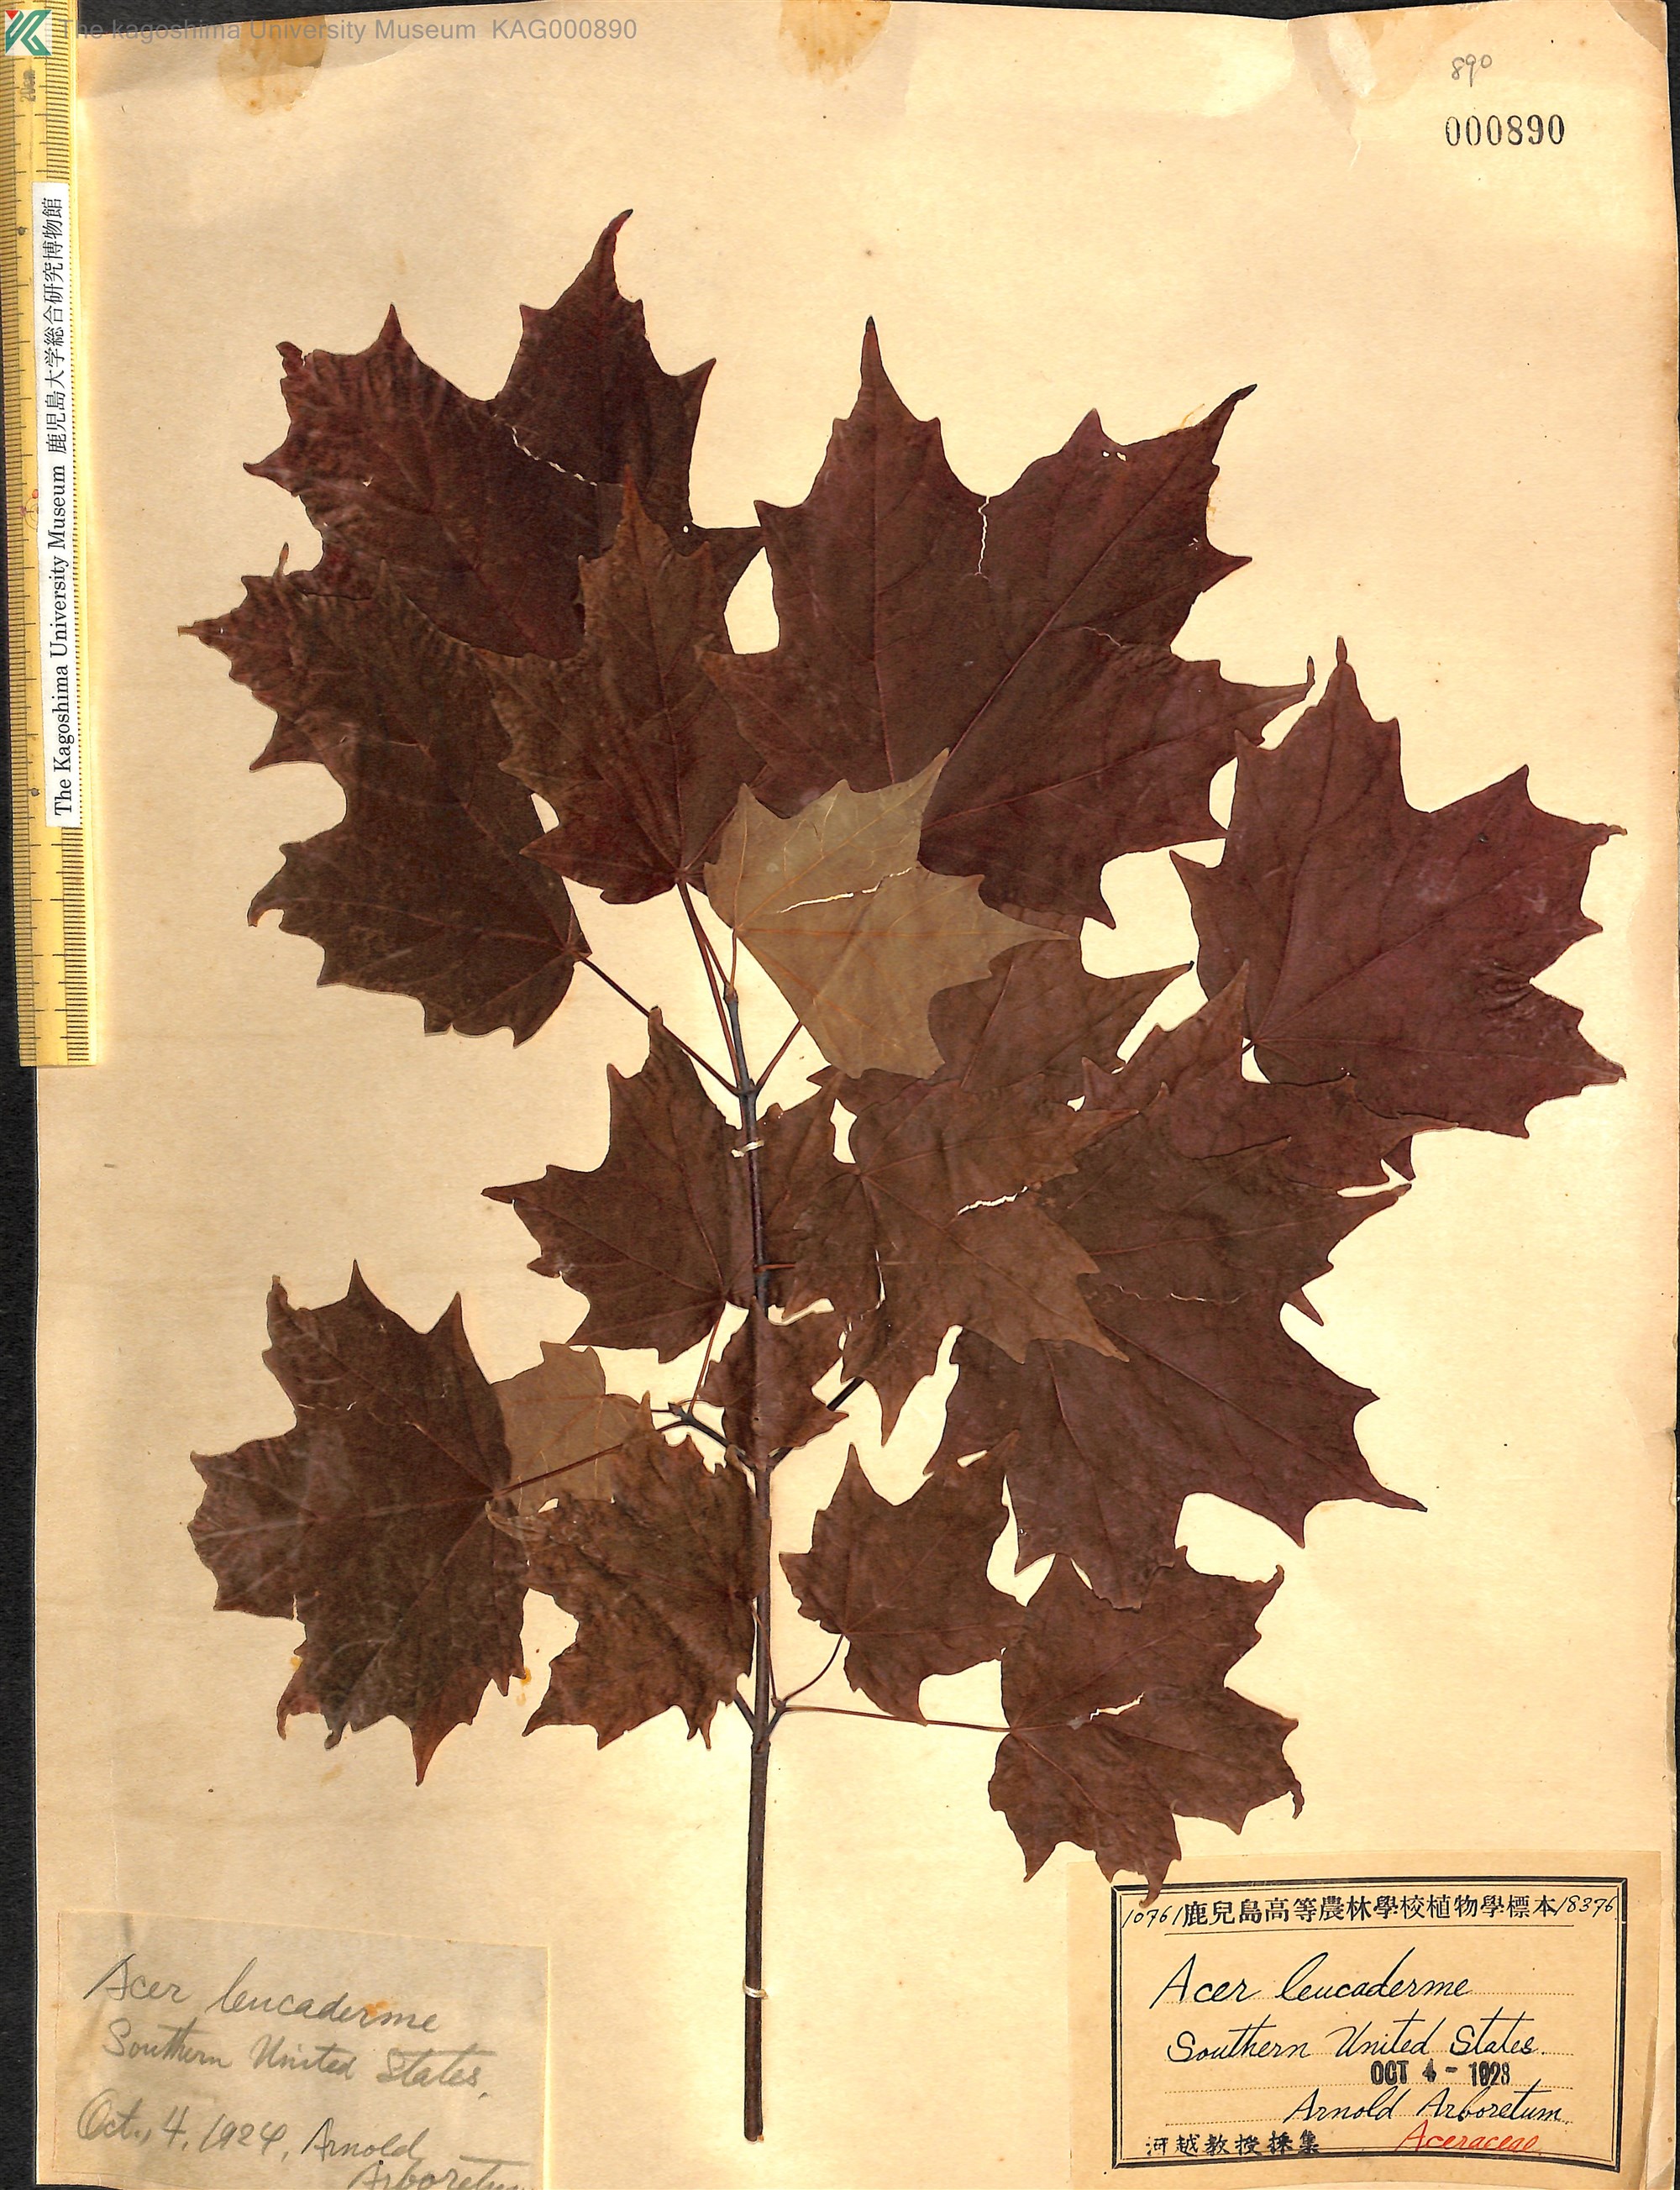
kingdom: Plantae
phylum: Tracheophyta
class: Magnoliopsida
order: Sapindales
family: Sapindaceae
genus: Acer
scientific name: Acer leucoderme
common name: Chalk maple
